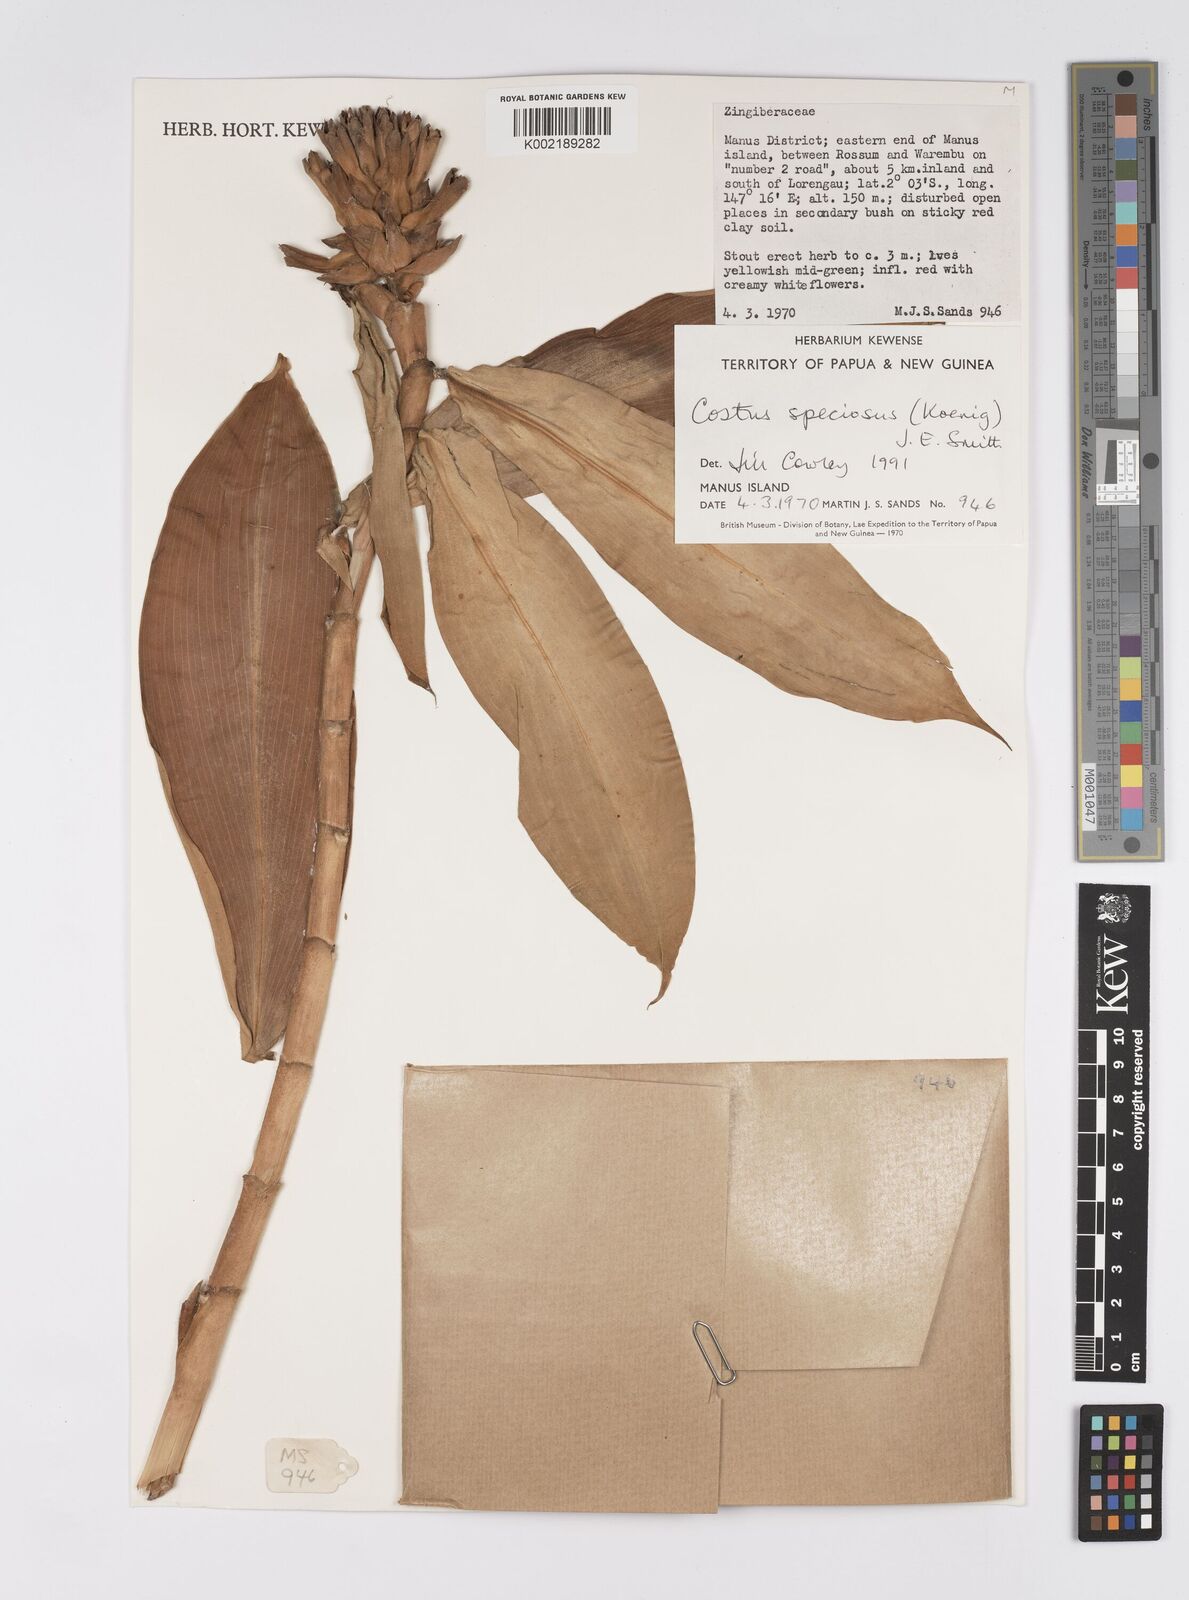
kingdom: Plantae
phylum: Tracheophyta
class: Liliopsida
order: Zingiberales
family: Costaceae
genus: Hellenia
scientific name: Hellenia speciosa
